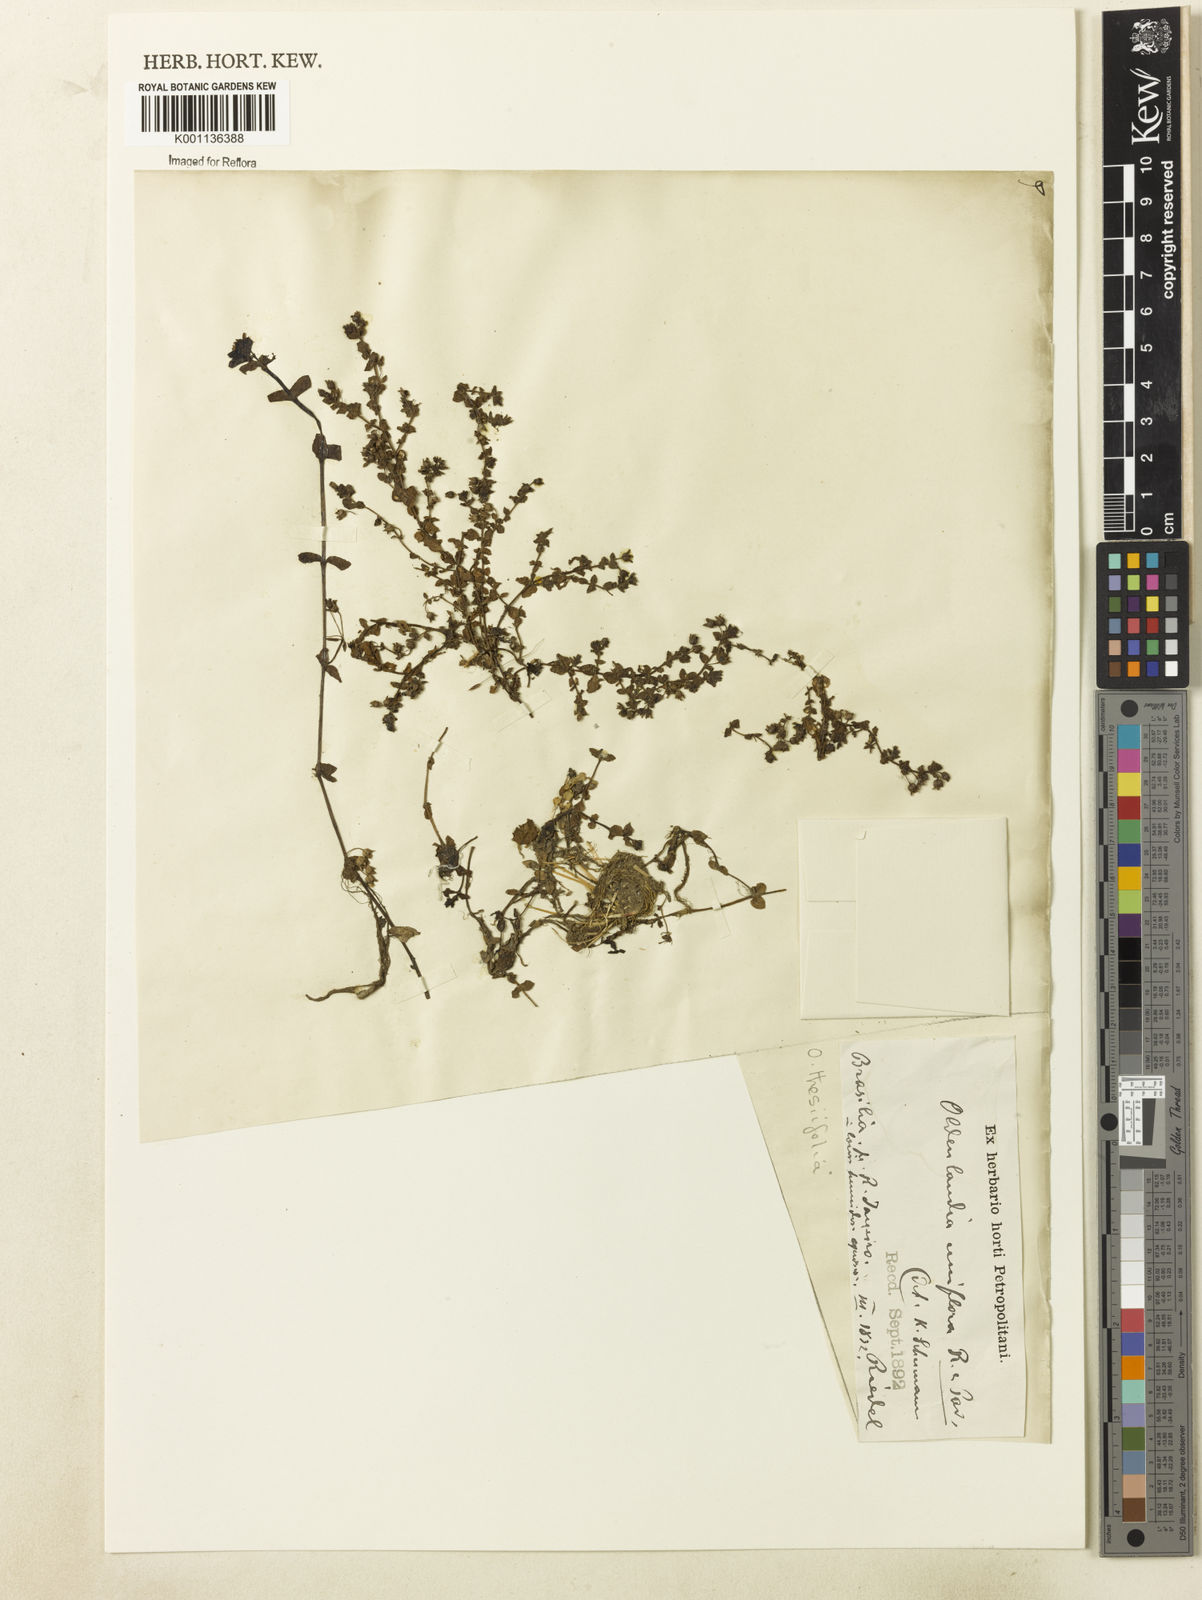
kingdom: Plantae
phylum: Tracheophyta
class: Magnoliopsida
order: Gentianales
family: Rubiaceae
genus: Oldenlandia
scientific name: Oldenlandia salzmannii
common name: Salzmann's mille graines
